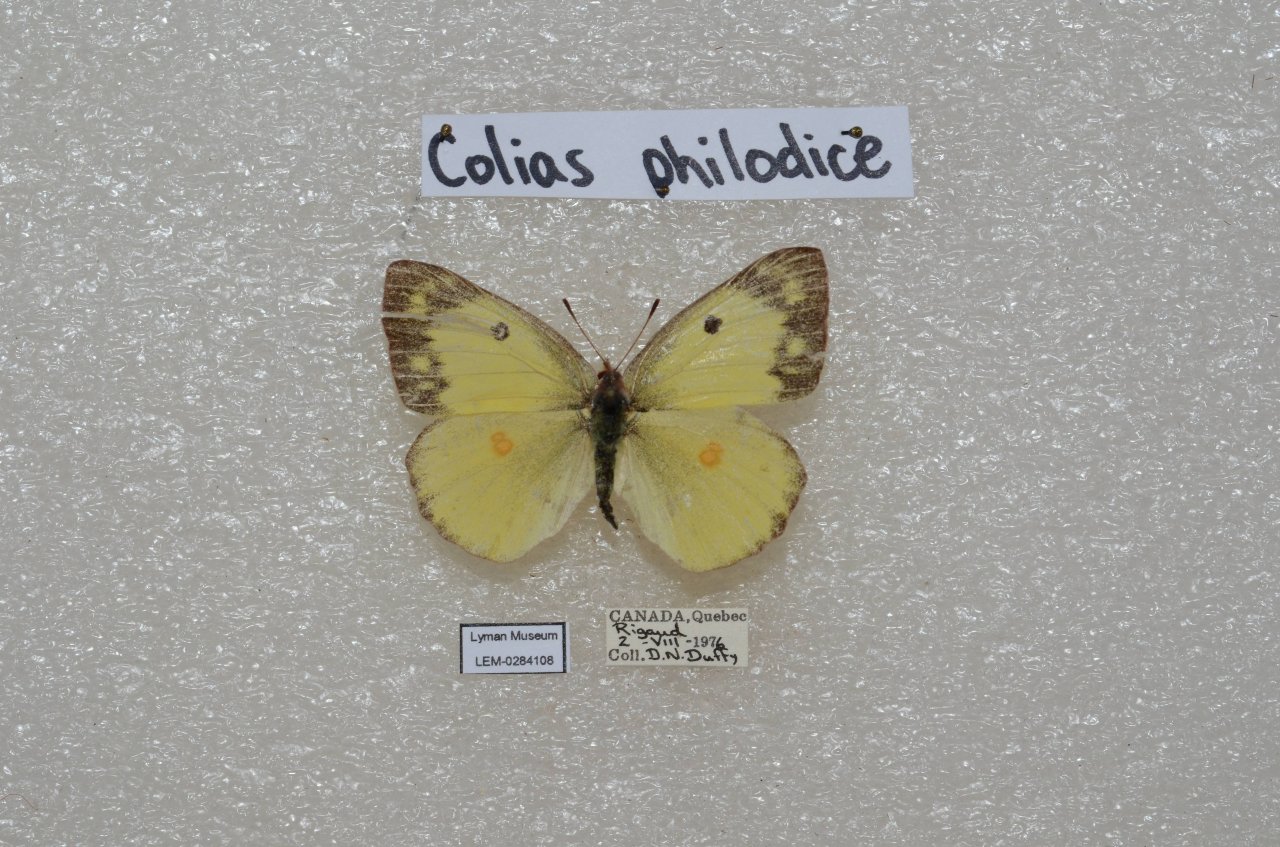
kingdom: Animalia
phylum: Arthropoda
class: Insecta
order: Lepidoptera
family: Pieridae
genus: Colias
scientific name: Colias philodice
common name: Clouded Sulphur
